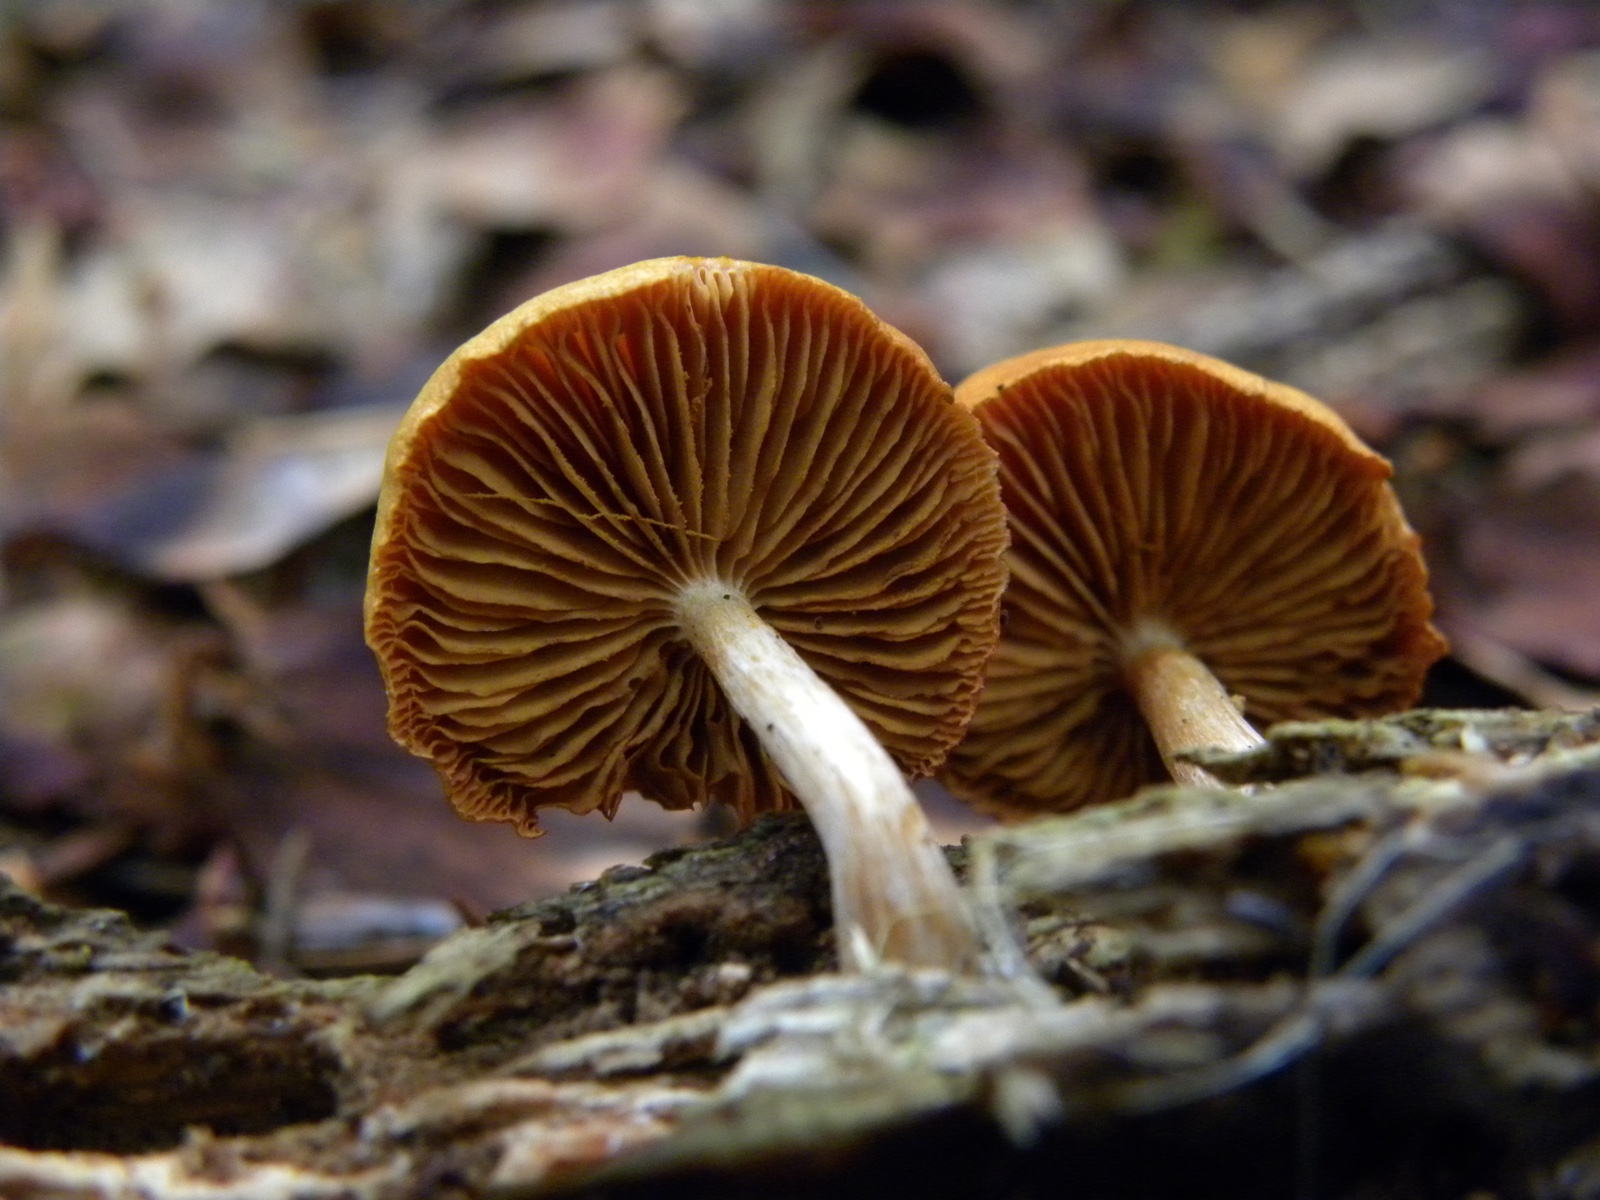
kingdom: Fungi
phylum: Basidiomycota
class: Agaricomycetes
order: Agaricales
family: Hymenogastraceae
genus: Gymnopilus
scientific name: Gymnopilus penetrans
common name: plettet flammehat
